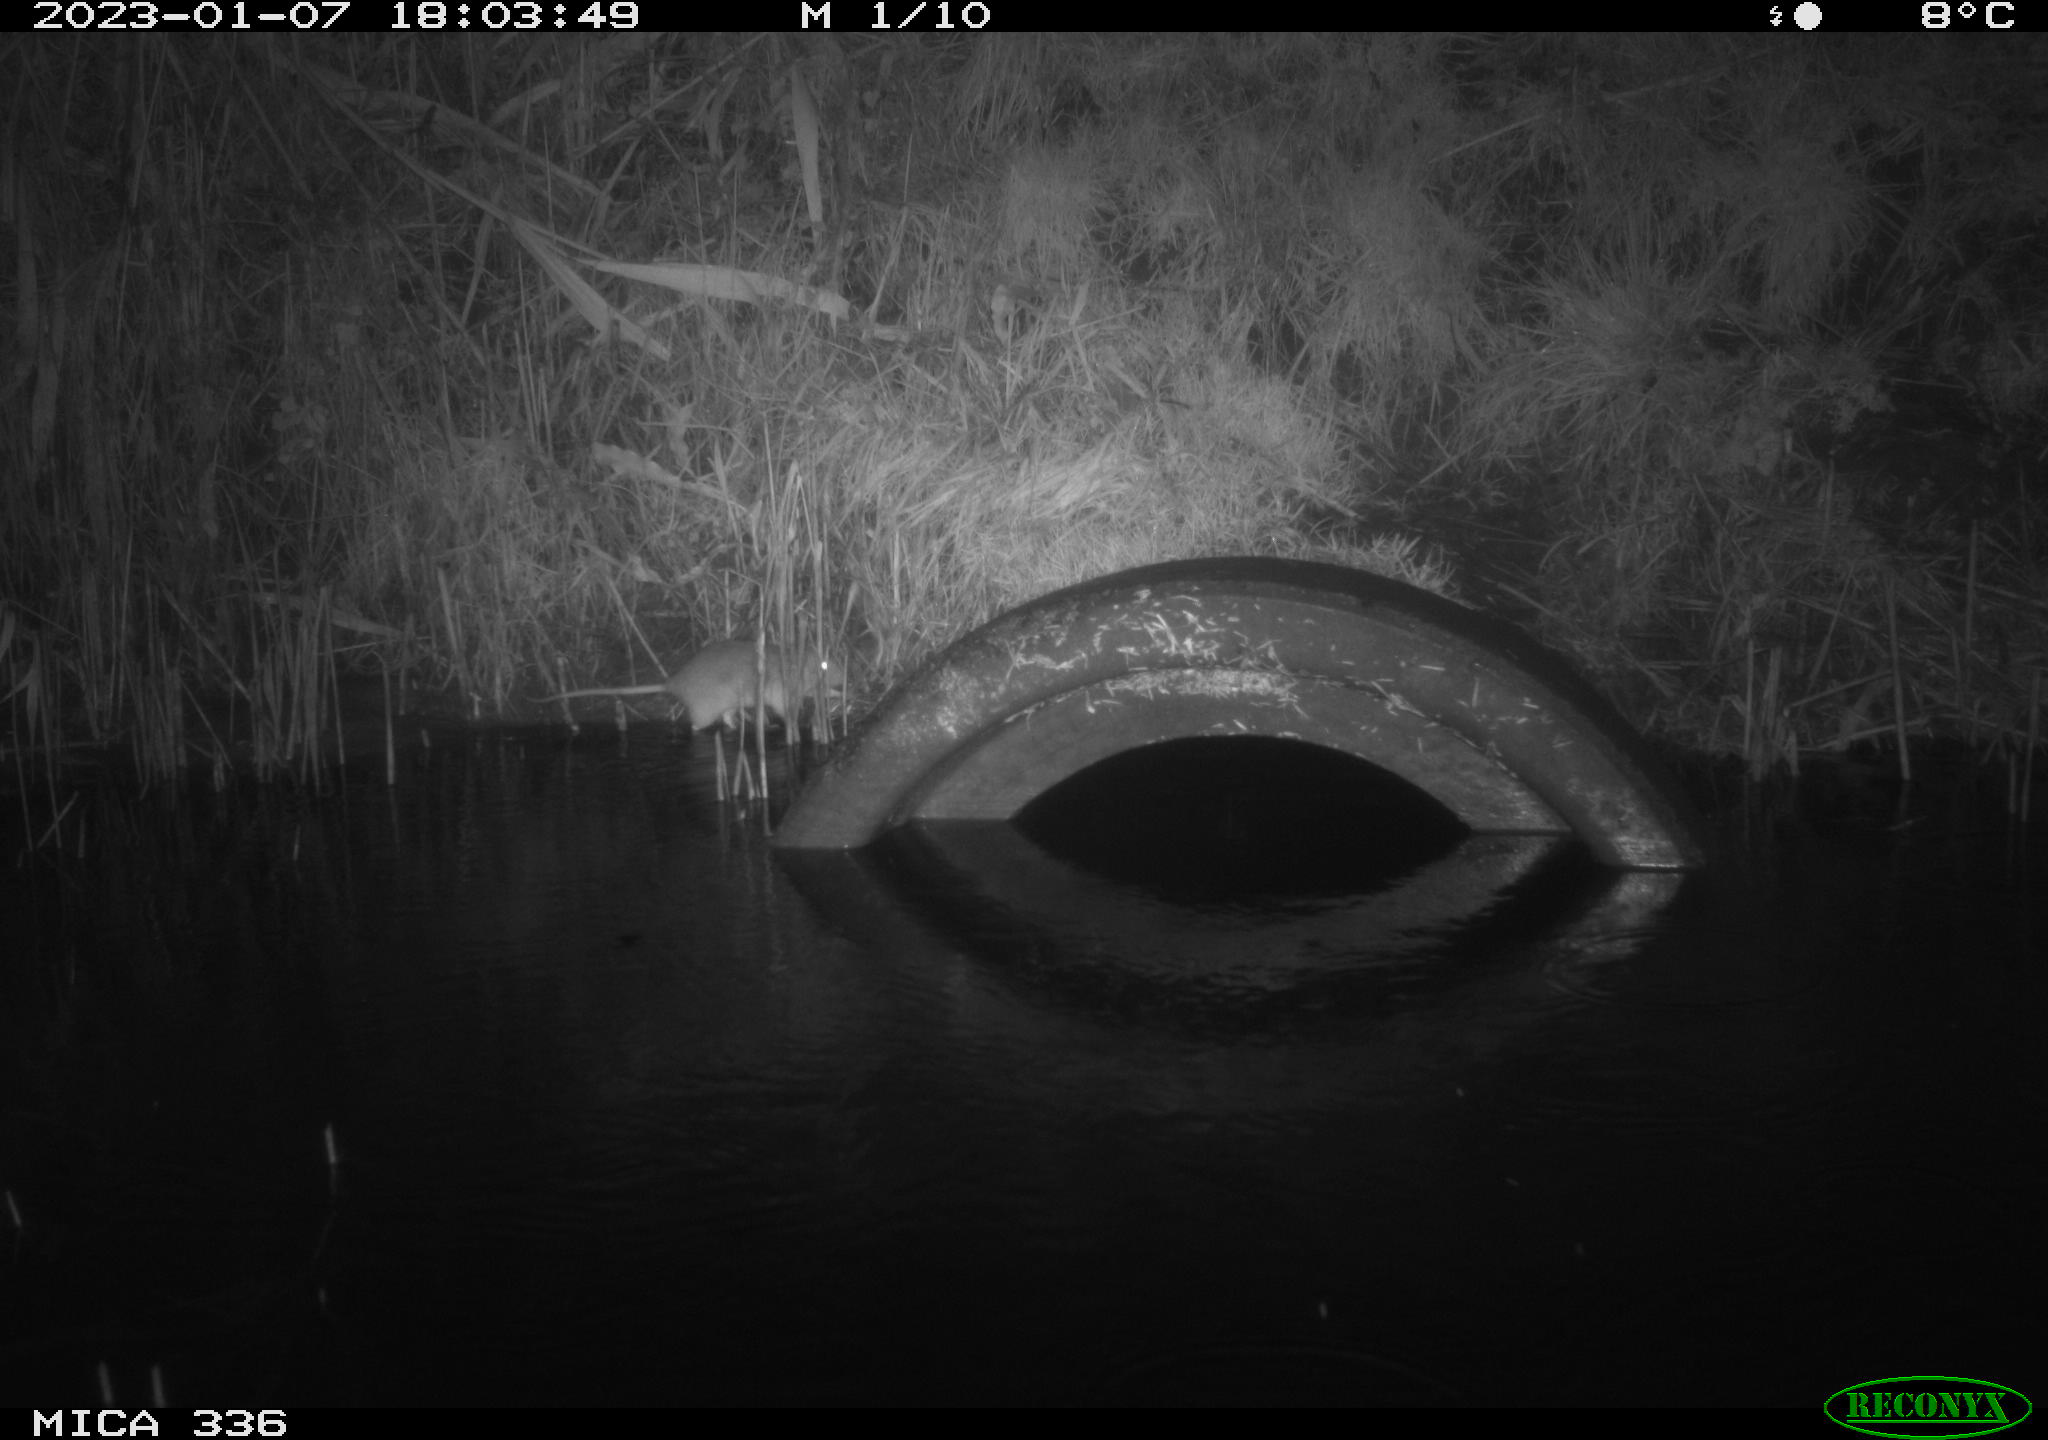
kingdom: Animalia
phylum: Chordata
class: Mammalia
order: Rodentia
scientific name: Rodentia
